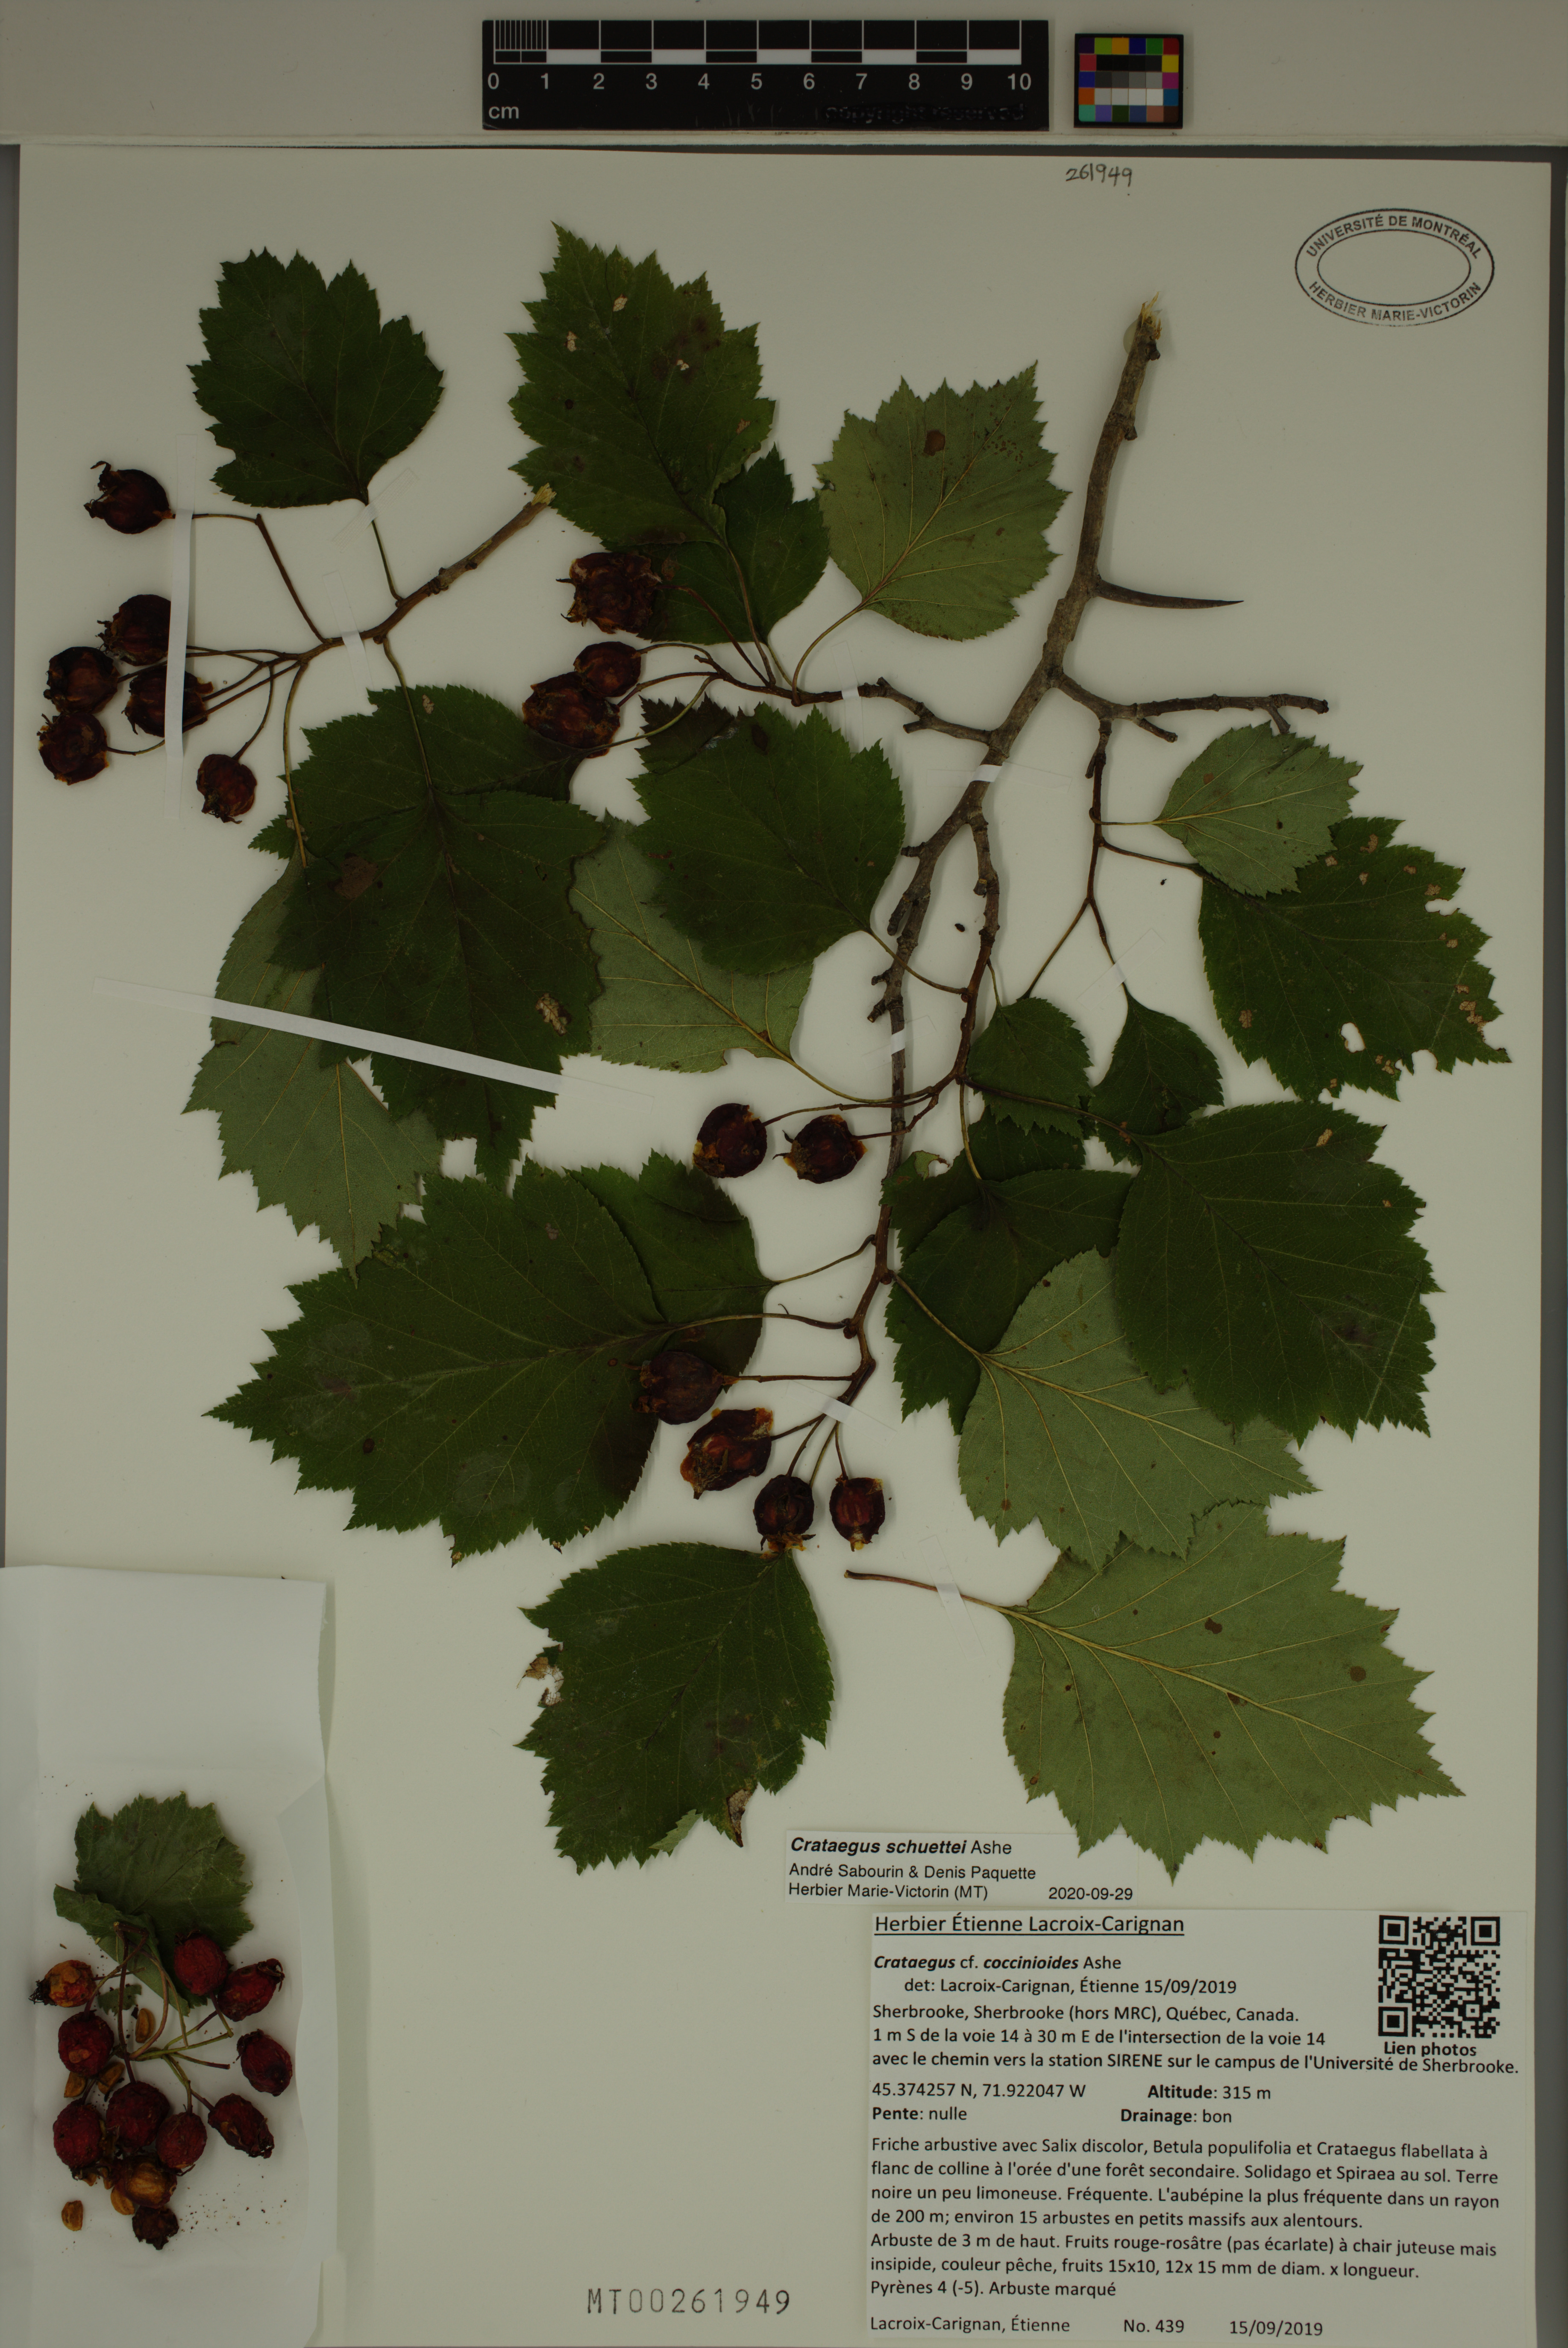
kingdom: Plantae
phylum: Tracheophyta
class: Magnoliopsida
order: Rosales
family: Rosaceae
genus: Crataegus
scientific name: Crataegus schuettei
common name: Schuette's hawthorn
